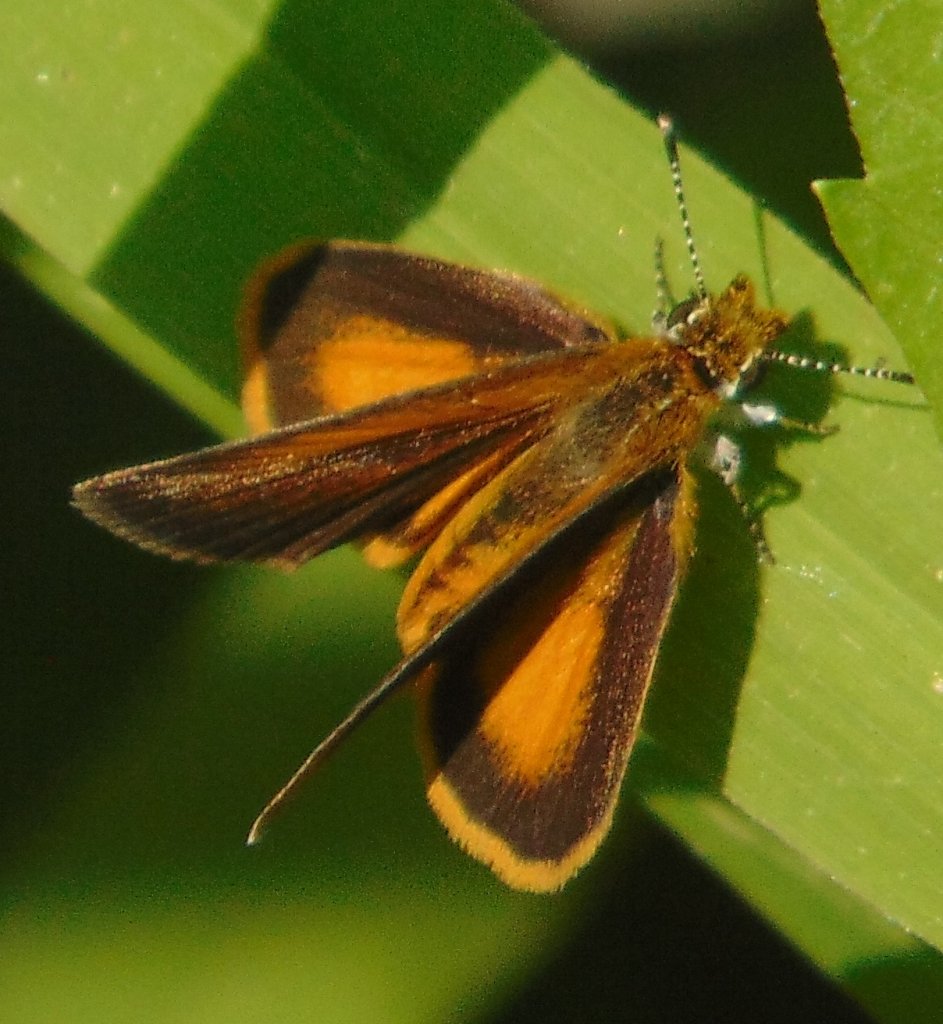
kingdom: Animalia
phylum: Arthropoda
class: Insecta
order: Lepidoptera
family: Hesperiidae
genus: Ancyloxypha
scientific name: Ancyloxypha numitor
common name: Least Skipper
